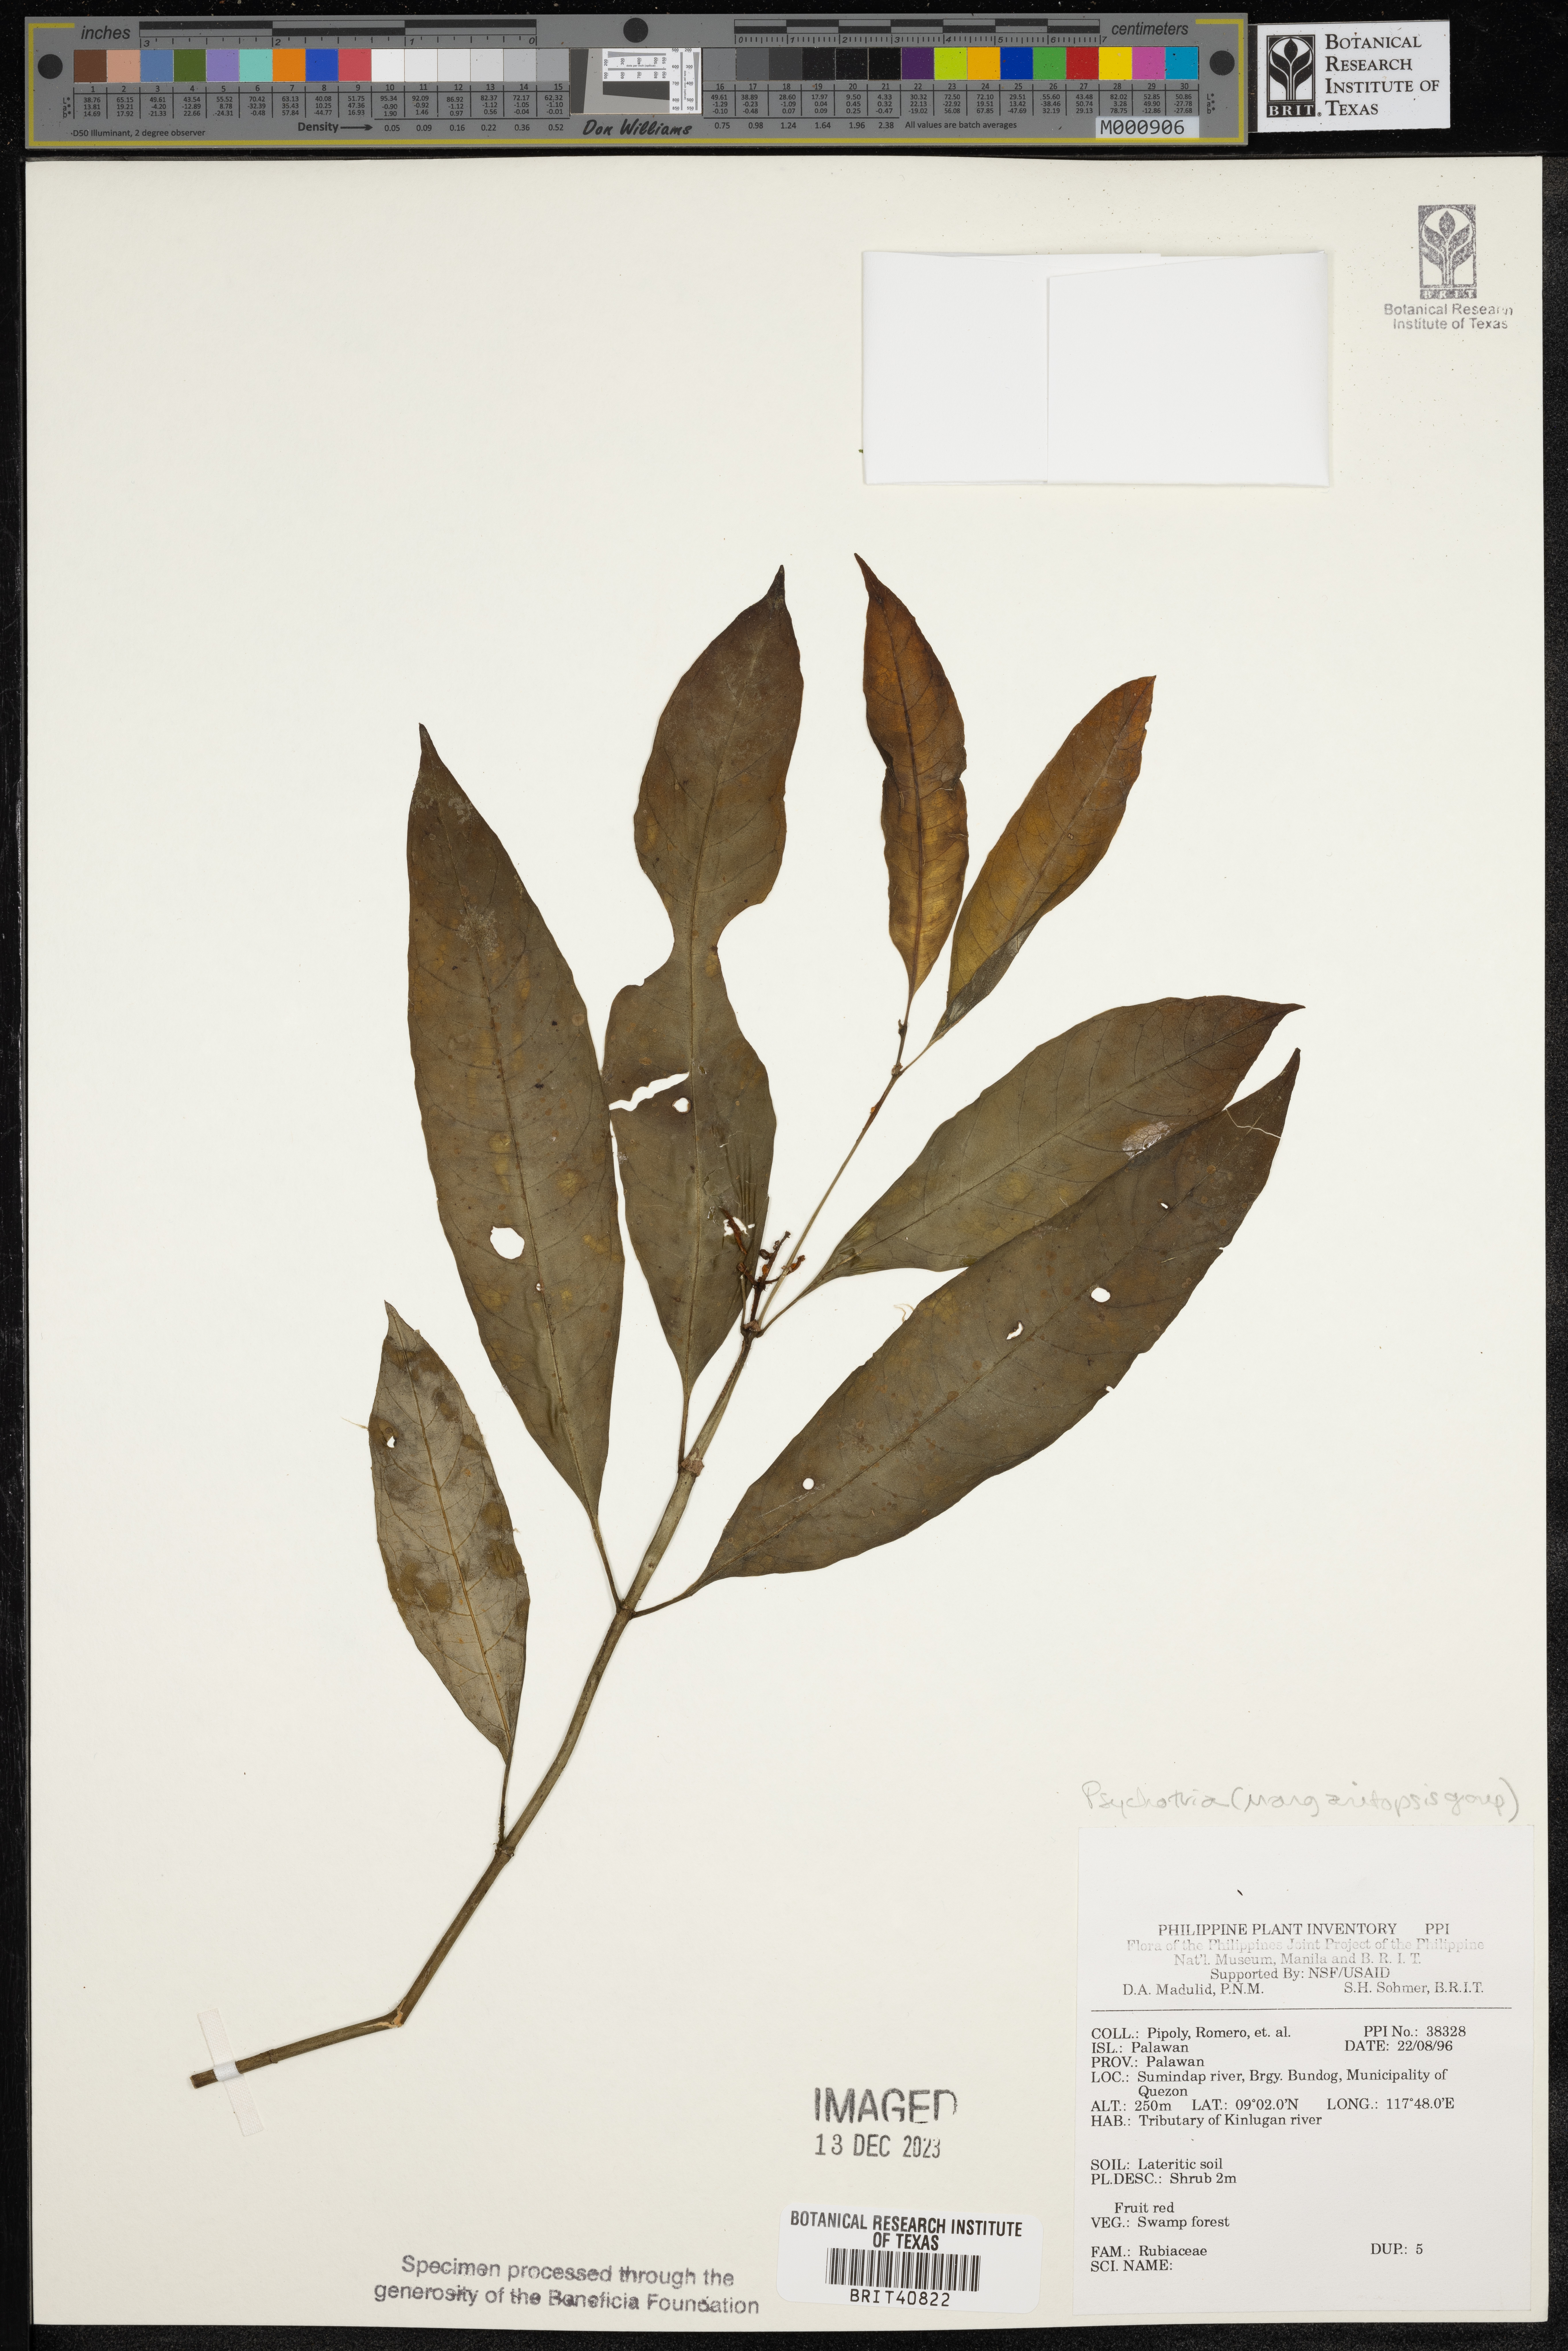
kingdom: Plantae
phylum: Tracheophyta
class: Magnoliopsida
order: Gentianales
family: Rubiaceae
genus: Psychotria
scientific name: Psychotria
